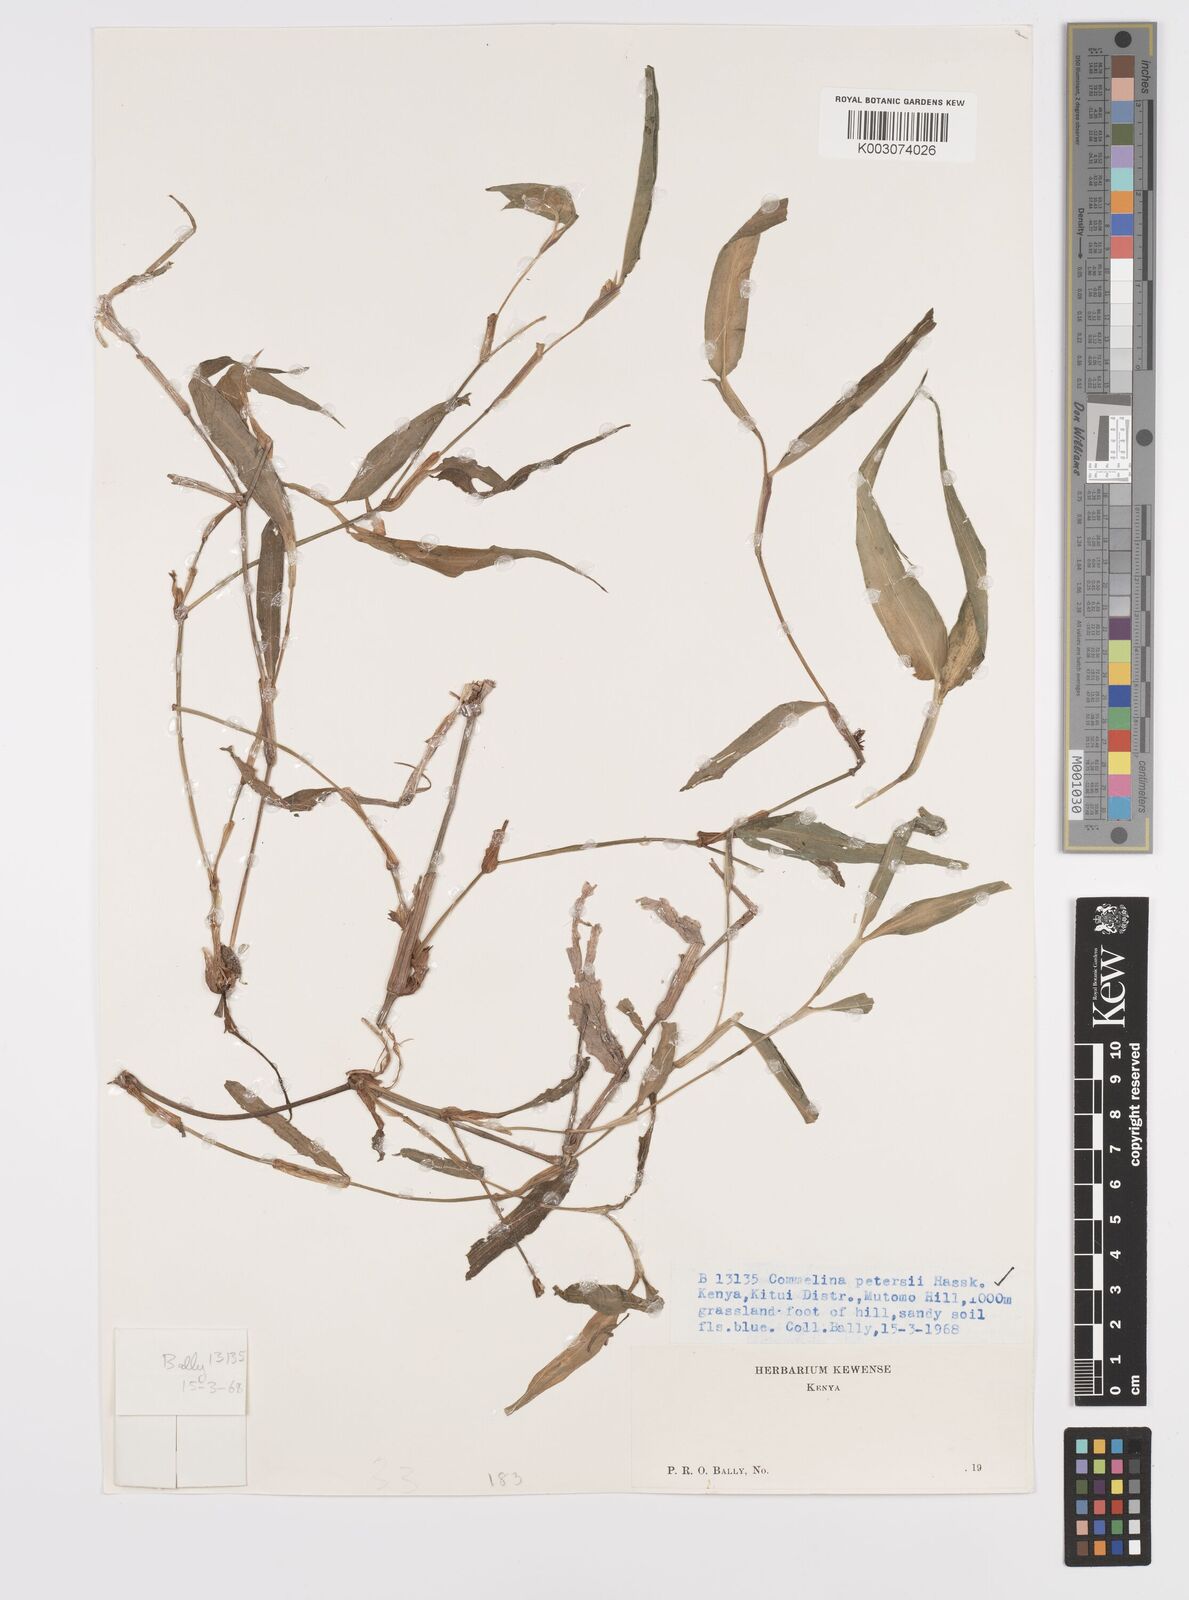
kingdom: Plantae
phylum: Tracheophyta
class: Liliopsida
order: Commelinales
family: Commelinaceae
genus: Commelina
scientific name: Commelina petersii
